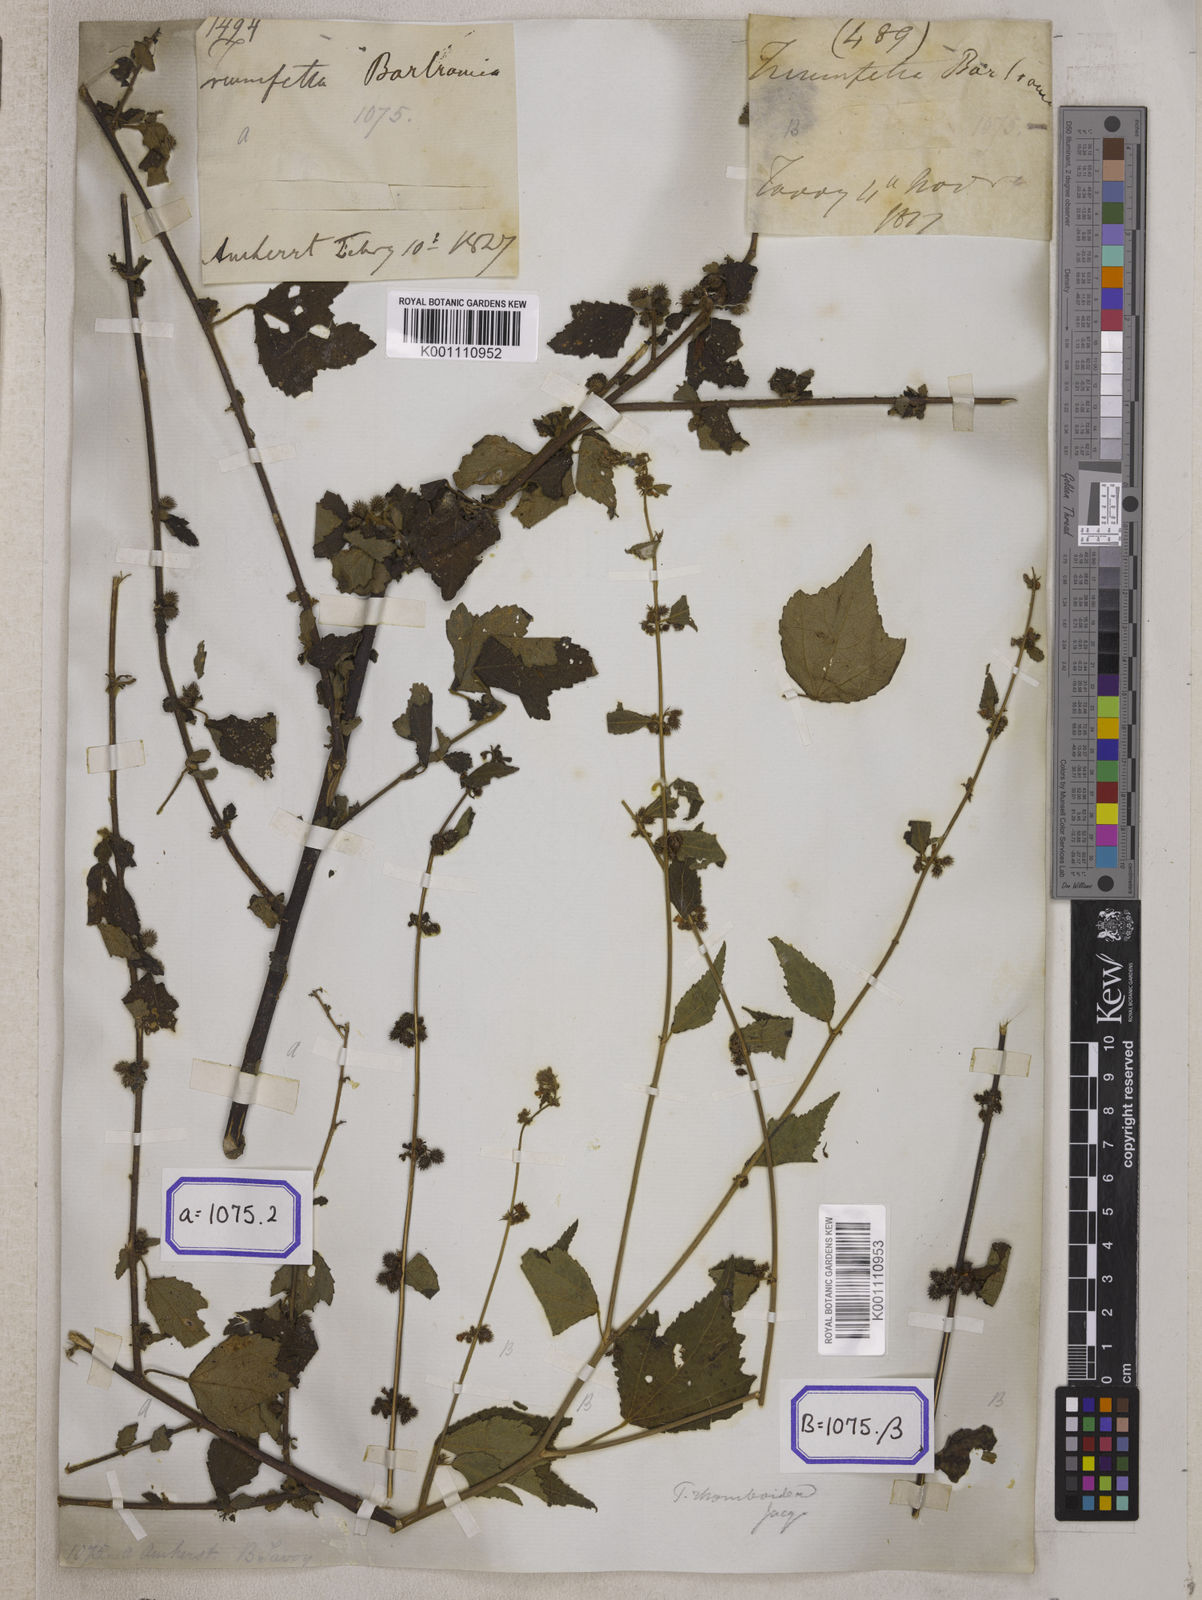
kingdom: Plantae
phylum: Tracheophyta
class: Magnoliopsida
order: Malvales
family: Malvaceae
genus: Triumfetta
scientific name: Triumfetta
